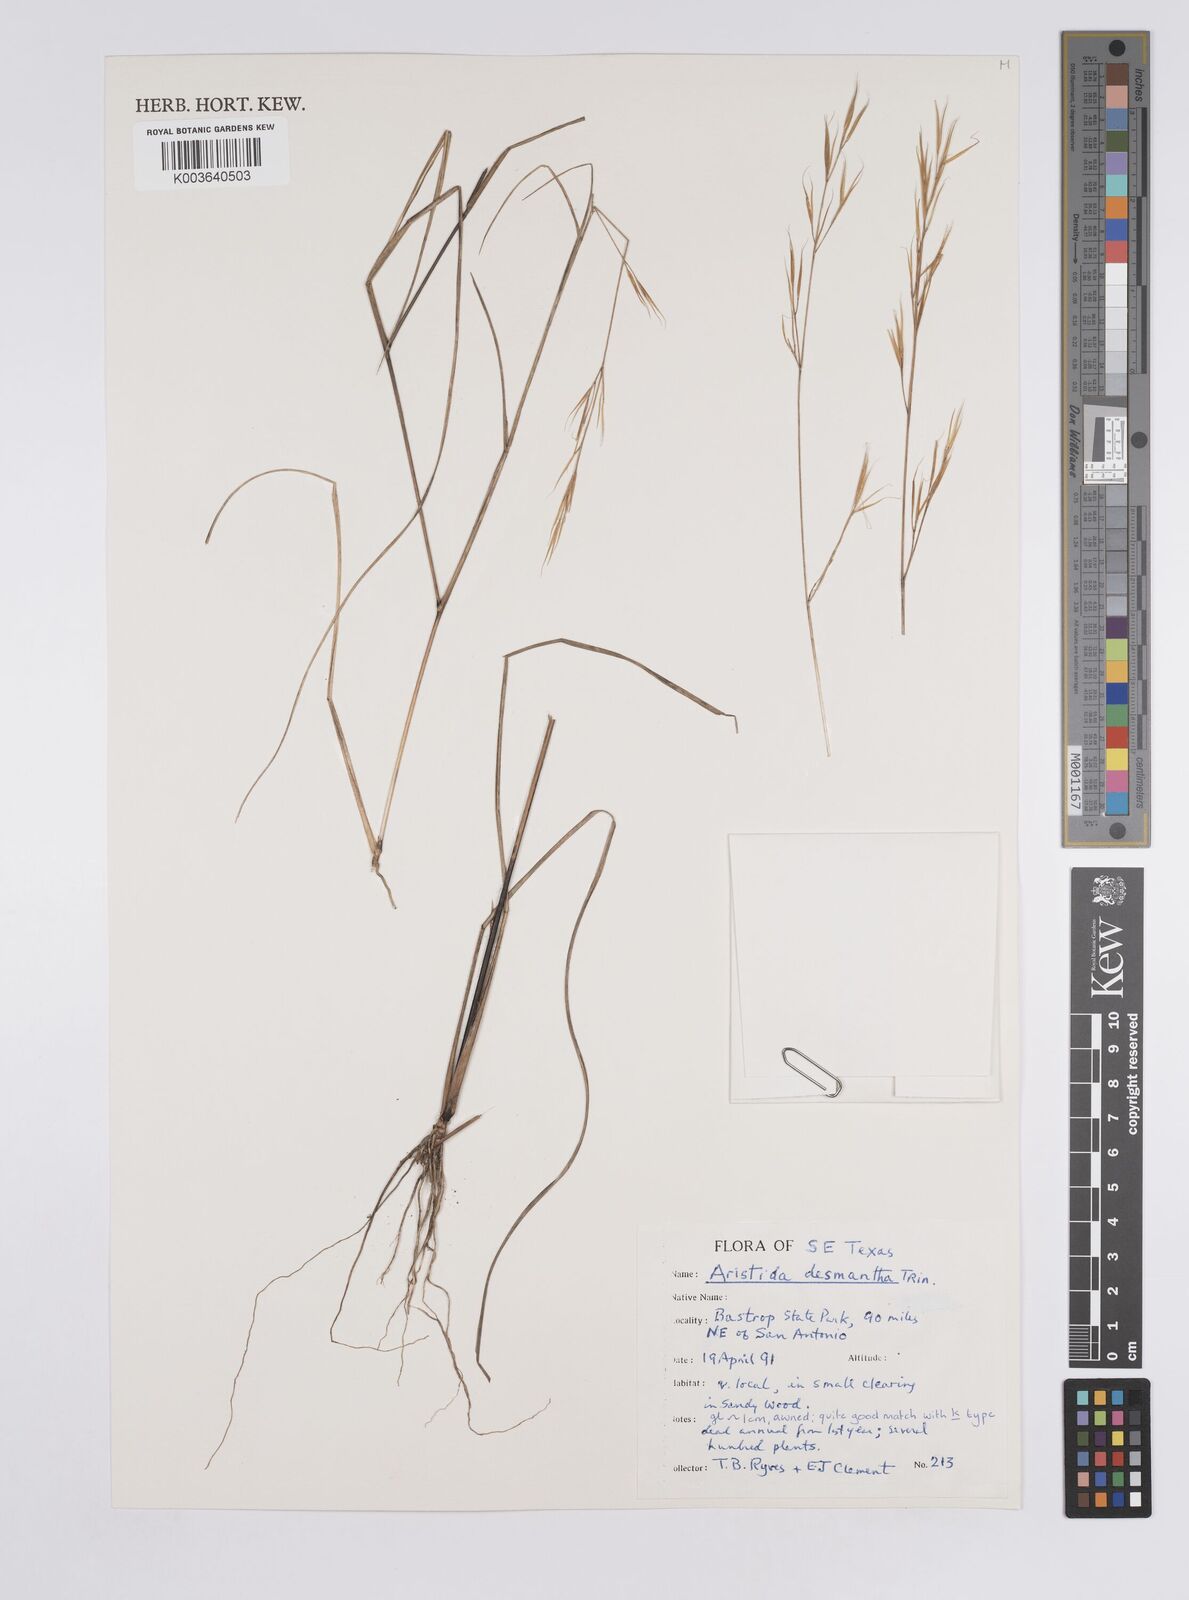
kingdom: Plantae
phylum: Tracheophyta
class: Liliopsida
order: Poales
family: Poaceae
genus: Aristida
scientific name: Aristida desmantha
